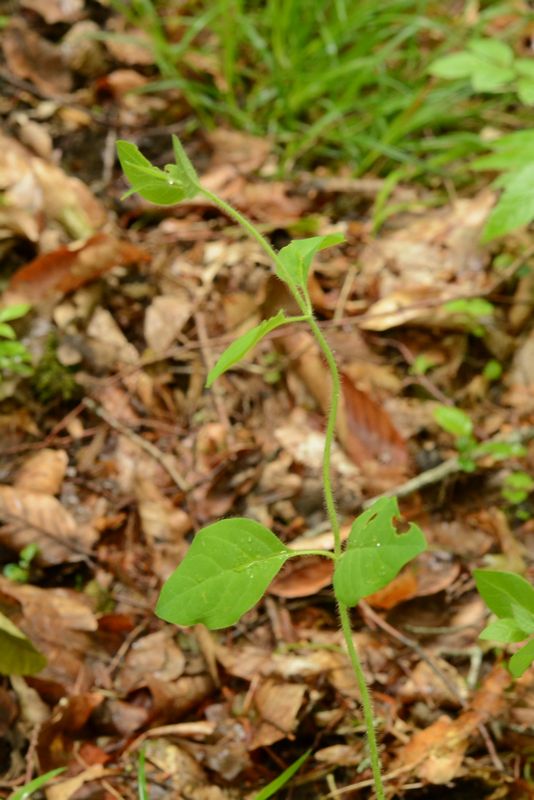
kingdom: Plantae
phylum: Tracheophyta
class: Magnoliopsida
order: Dipsacales
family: Caprifoliaceae
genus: Lonicera
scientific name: Lonicera japonica
